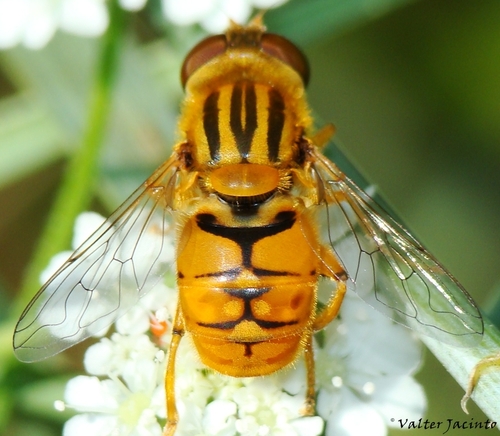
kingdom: Animalia
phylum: Arthropoda
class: Insecta
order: Diptera
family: Syrphidae
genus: Parhelophilus
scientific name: Parhelophilus versicolor
